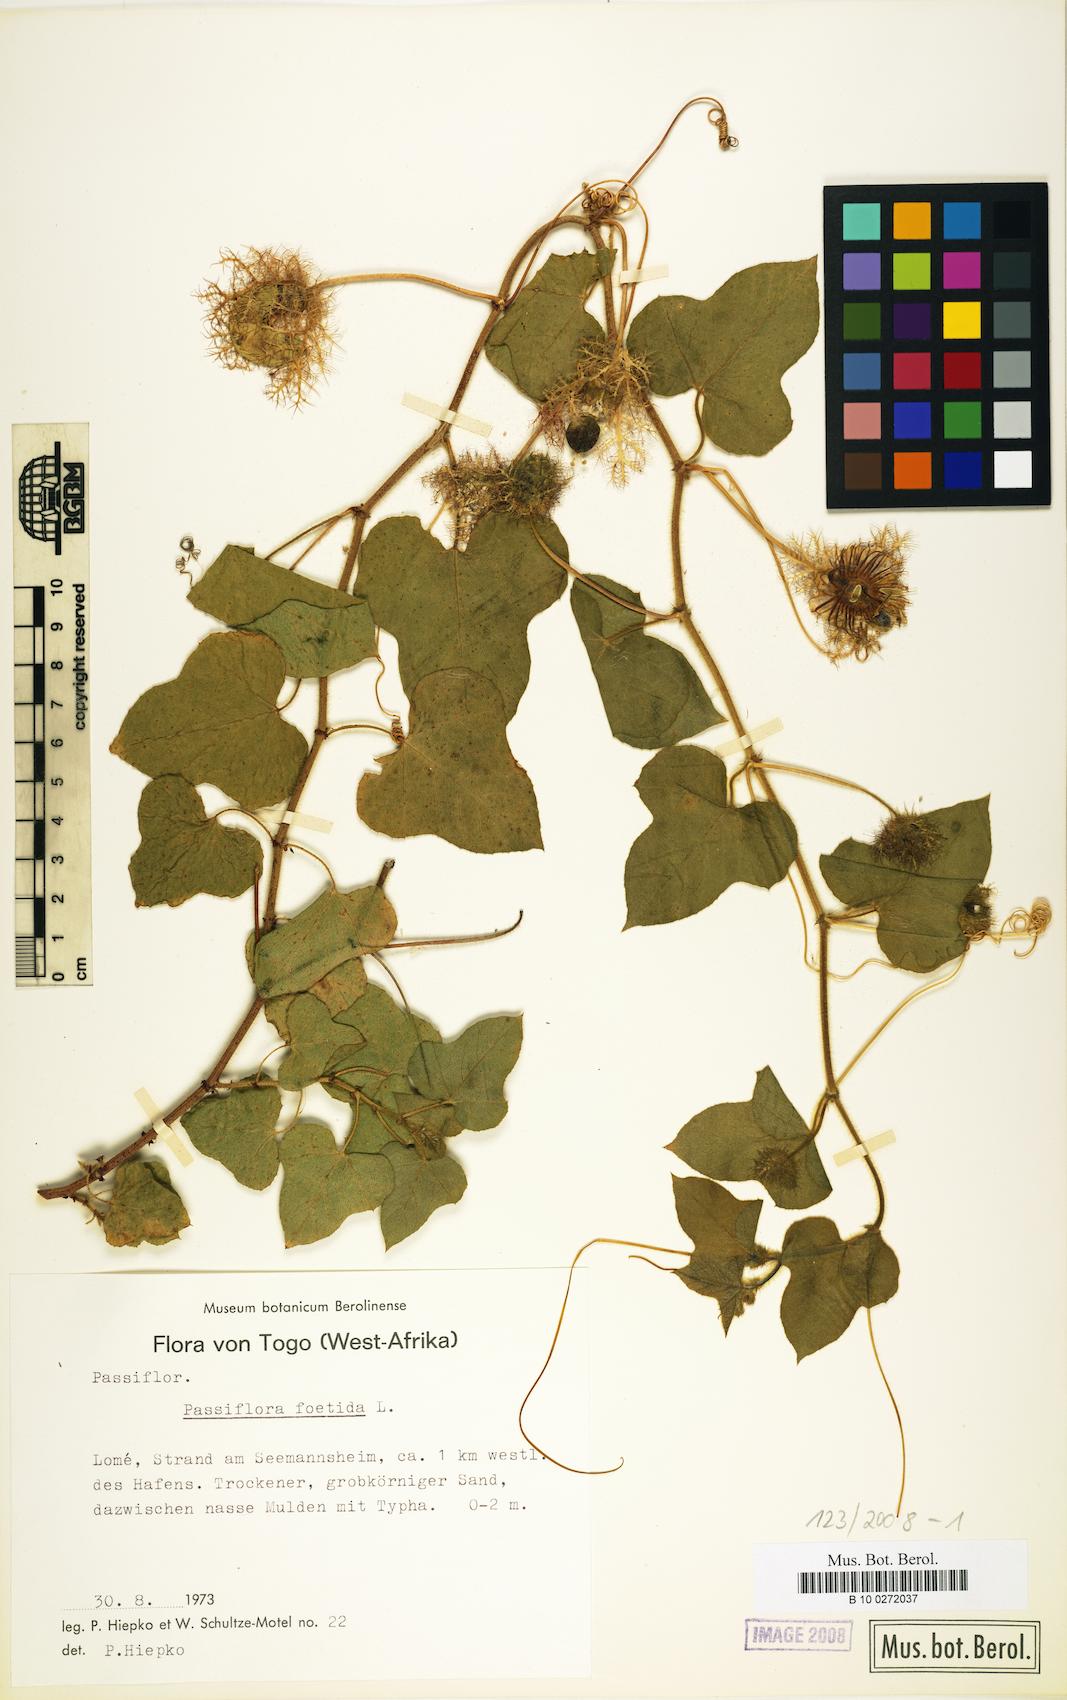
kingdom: Plantae
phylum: Tracheophyta
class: Magnoliopsida
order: Malpighiales
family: Passifloraceae
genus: Passiflora
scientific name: Passiflora foetida
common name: Fetid passionflower
